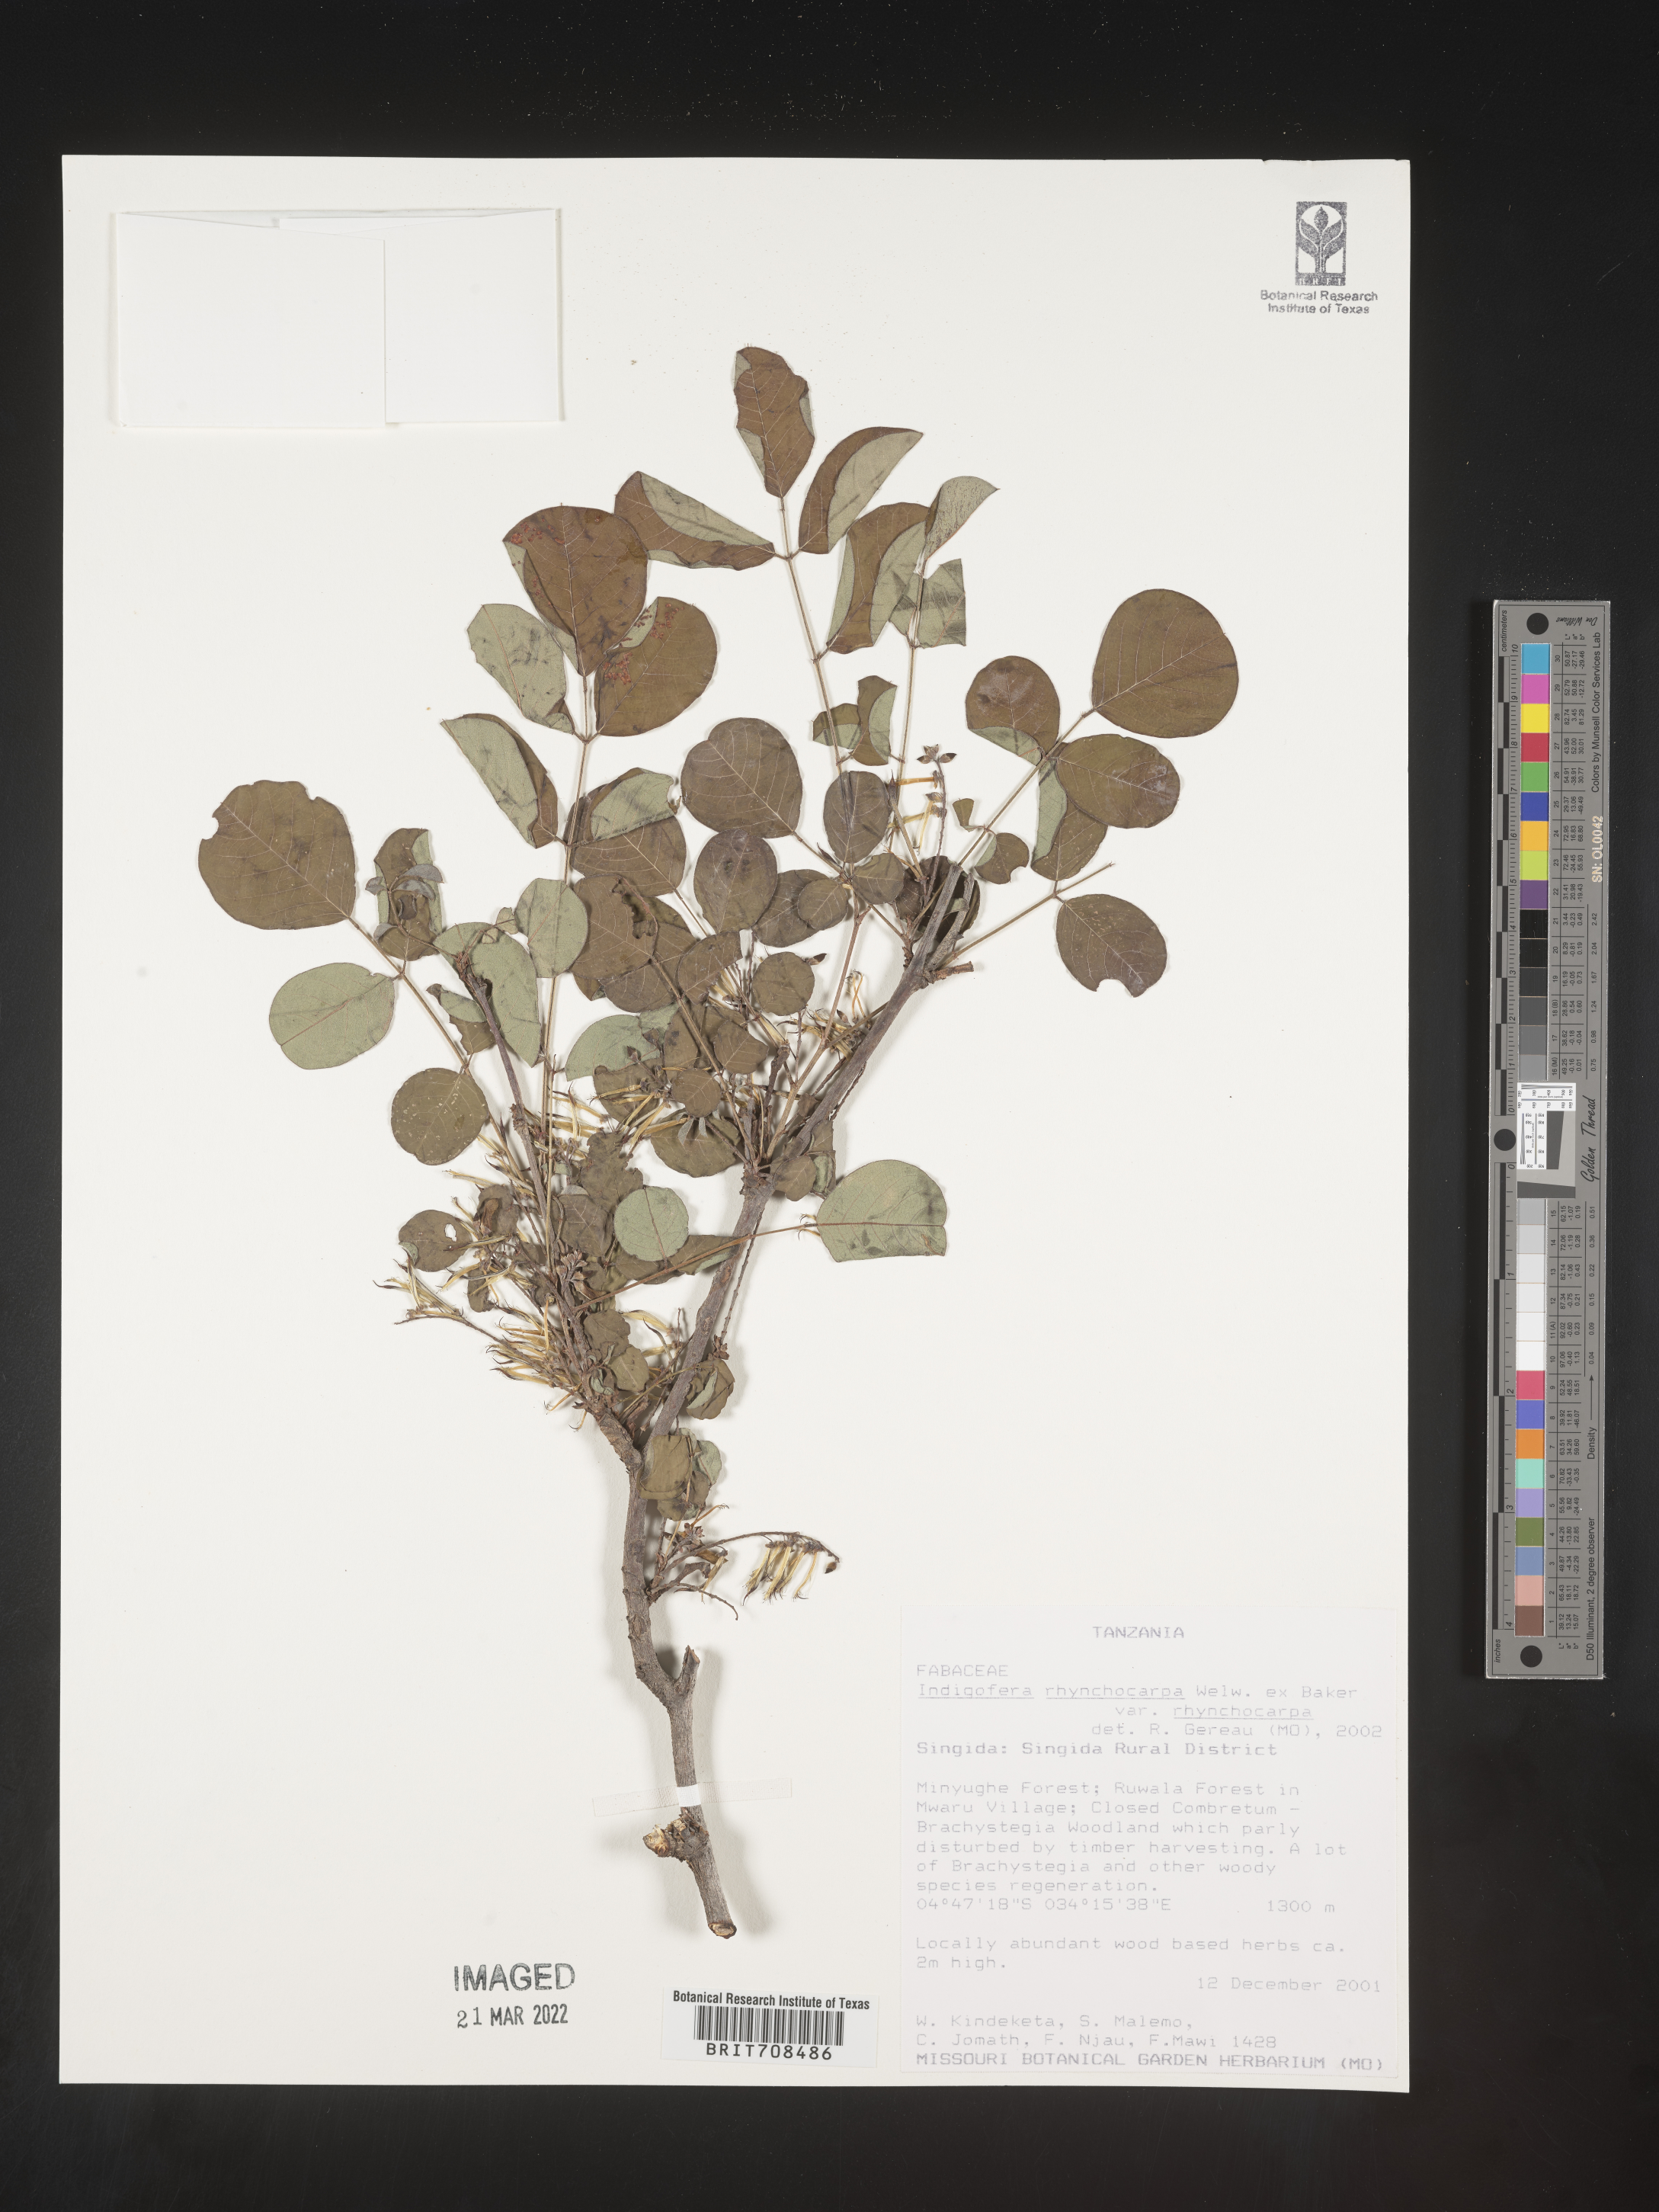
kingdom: Plantae
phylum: Tracheophyta
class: Magnoliopsida
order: Fabales
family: Fabaceae
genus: Indigofera
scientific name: Indigofera
